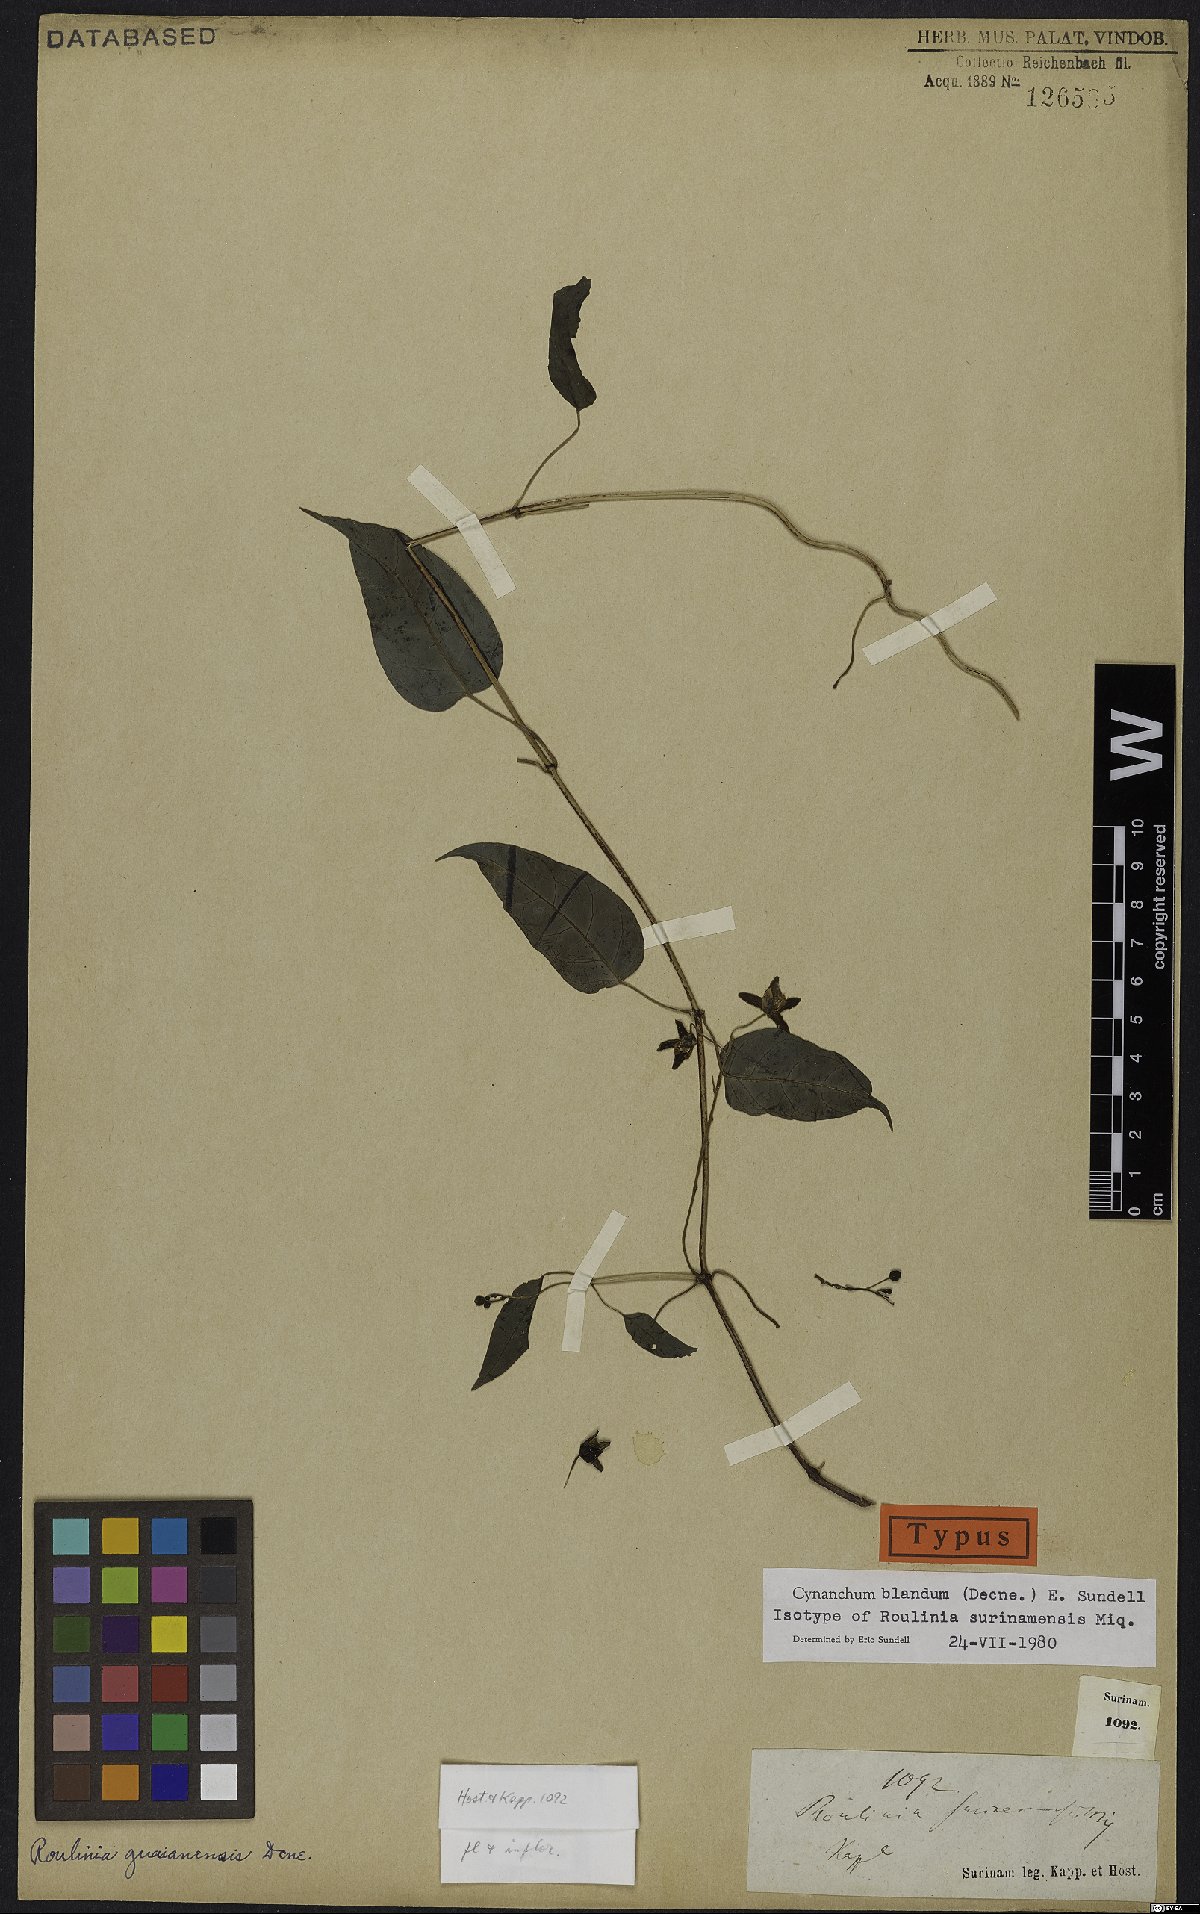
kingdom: Plantae
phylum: Tracheophyta
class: Magnoliopsida
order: Gentianales
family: Apocynaceae
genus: Cynanchum
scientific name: Cynanchum blandum
